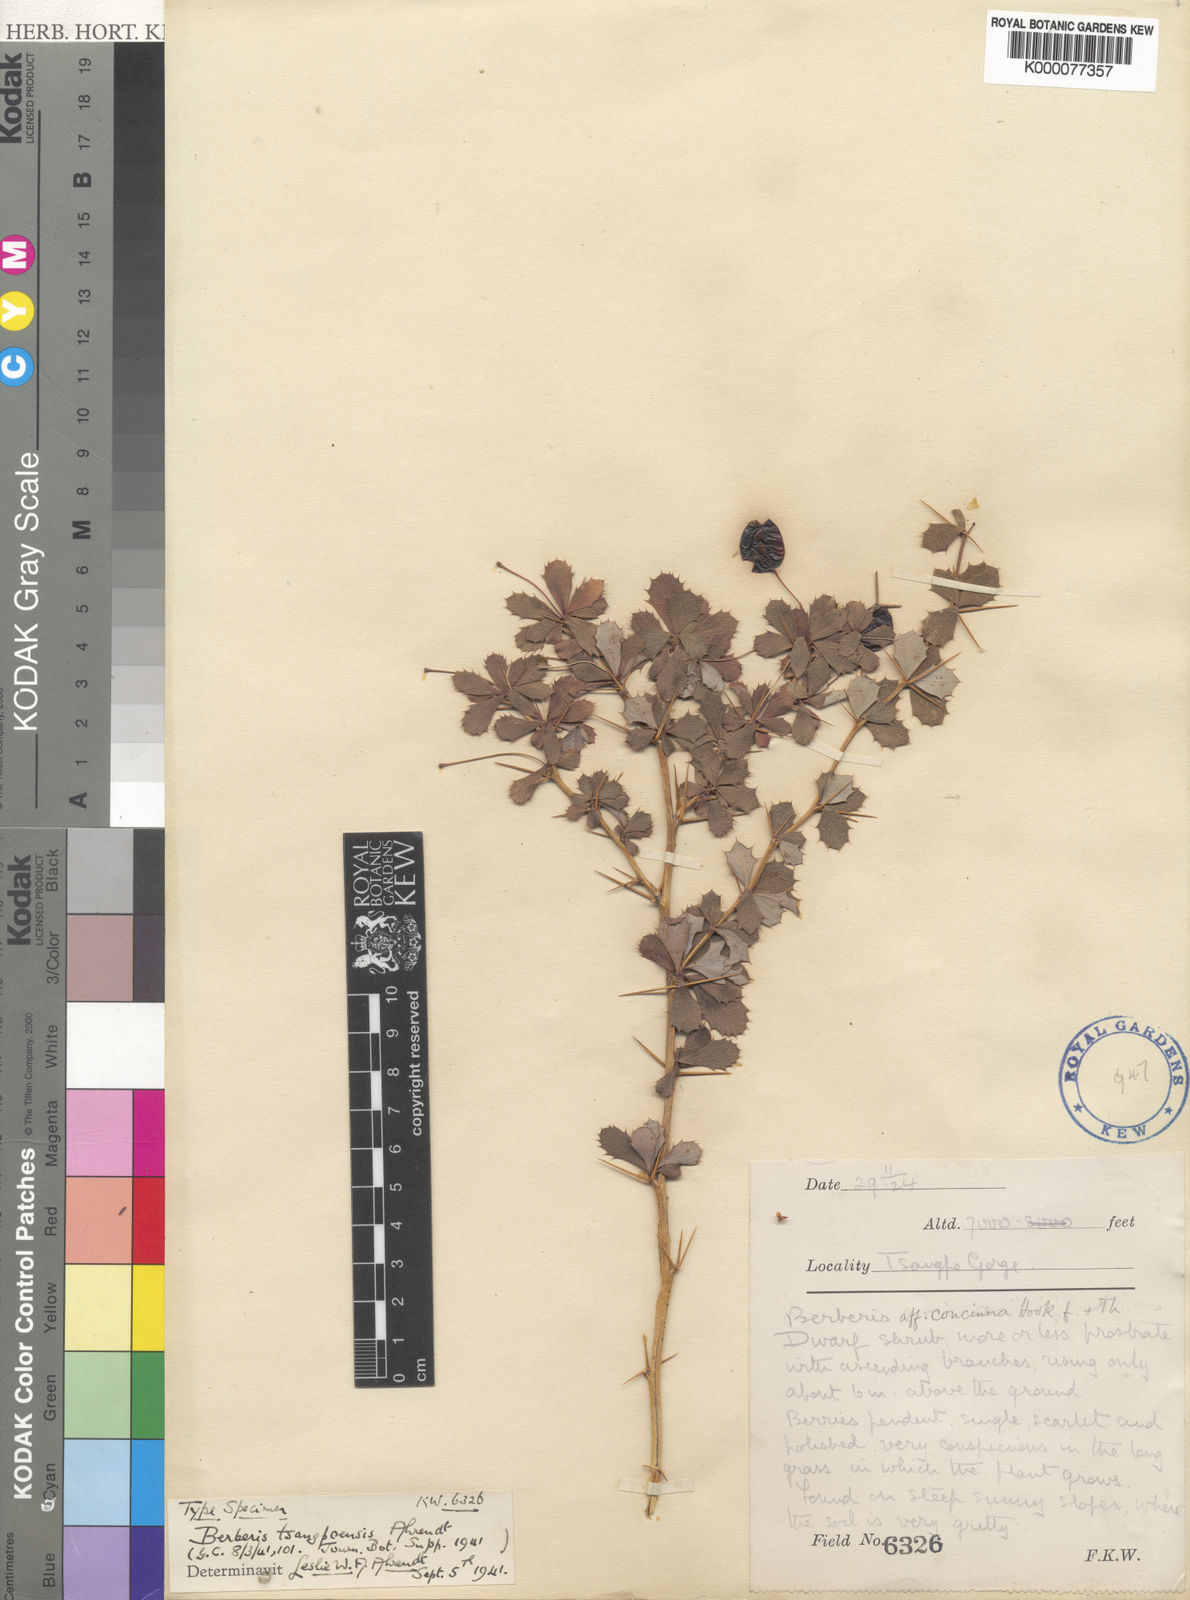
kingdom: Plantae
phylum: Tracheophyta
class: Magnoliopsida
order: Ranunculales
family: Berberidaceae
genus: Berberis
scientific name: Berberis tsangpoensis
